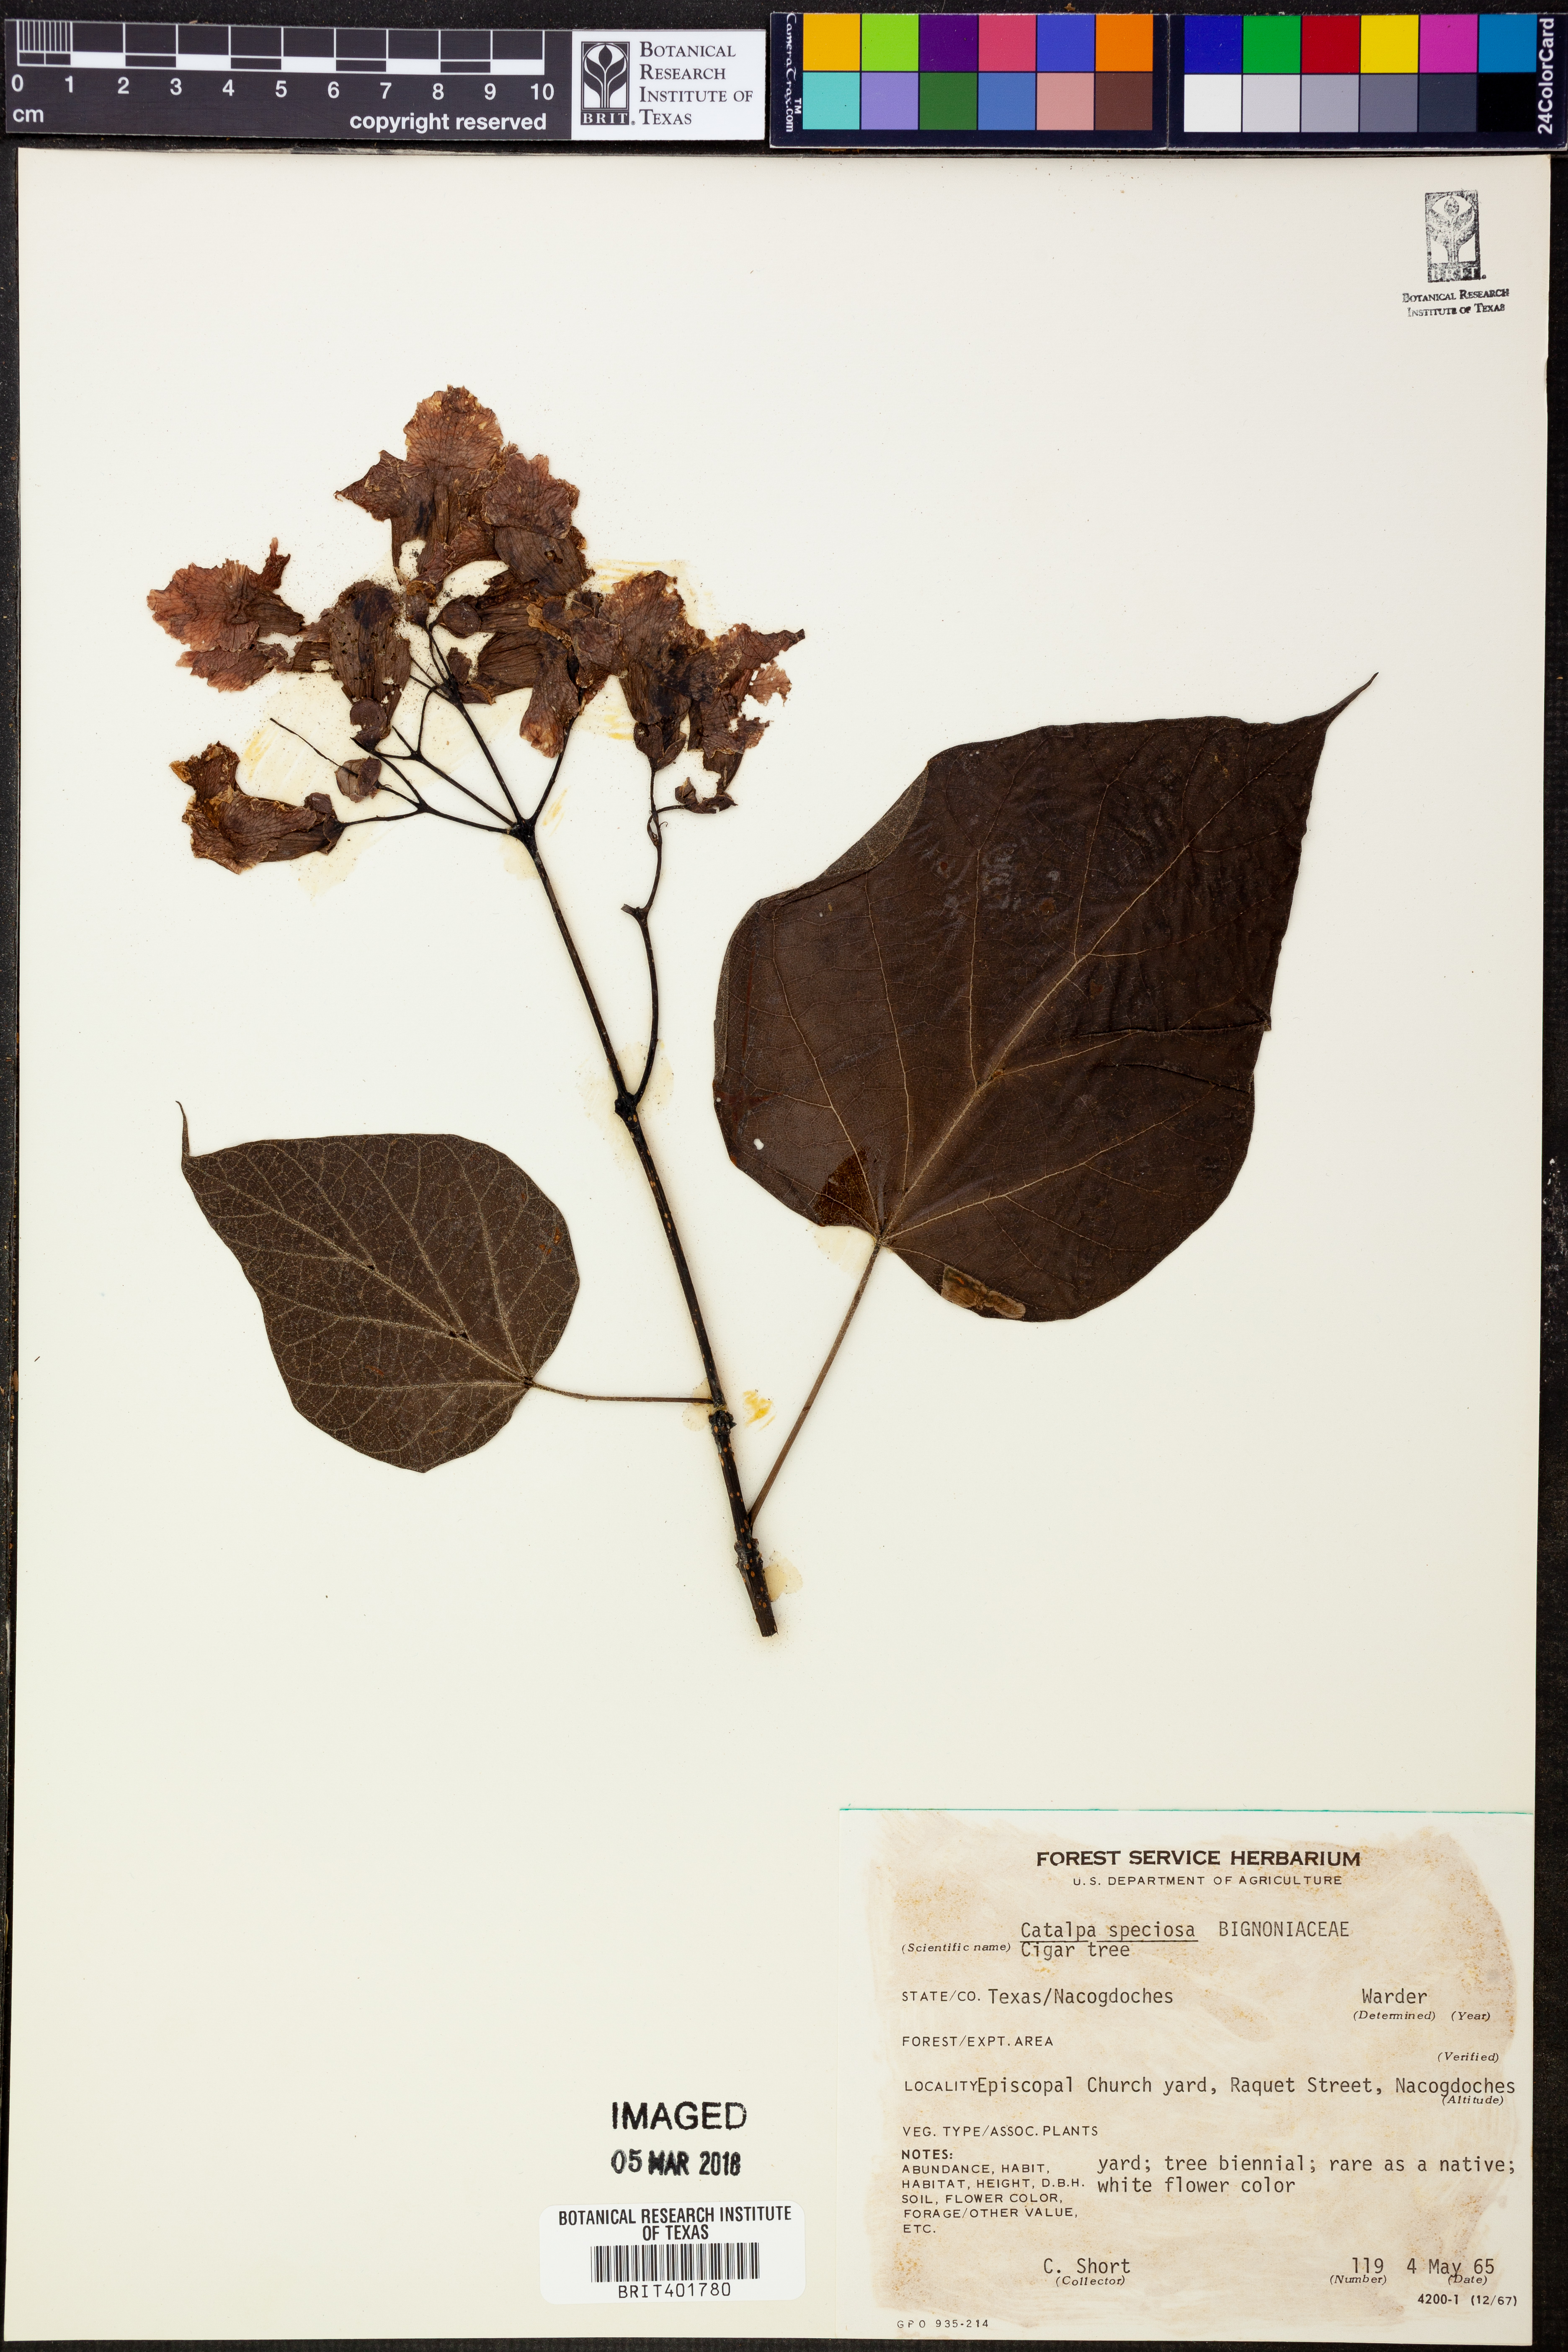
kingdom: Plantae
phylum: Tracheophyta
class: Magnoliopsida
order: Lamiales
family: Bignoniaceae
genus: Catalpa
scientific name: Catalpa speciosa
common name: Northern catalpa
